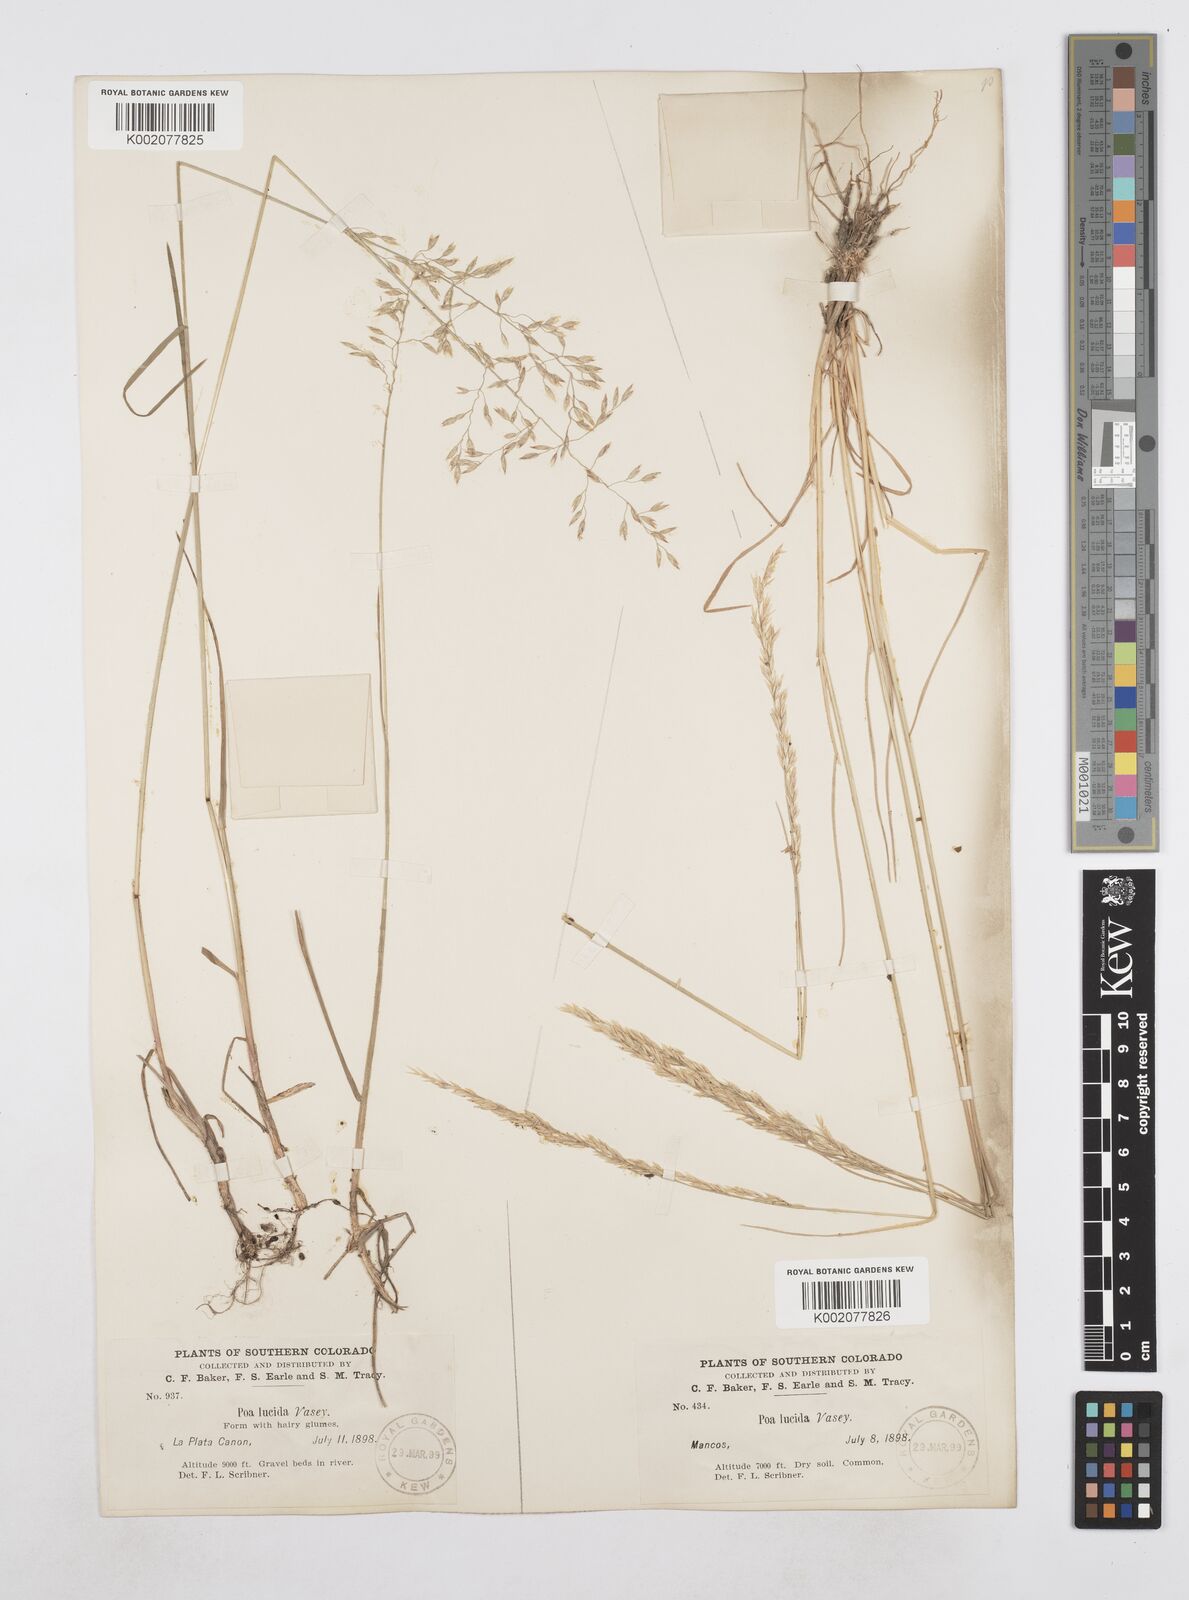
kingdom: Plantae
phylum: Tracheophyta
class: Liliopsida
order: Poales
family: Poaceae
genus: Poa
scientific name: Poa secunda
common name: Sandberg bluegrass
